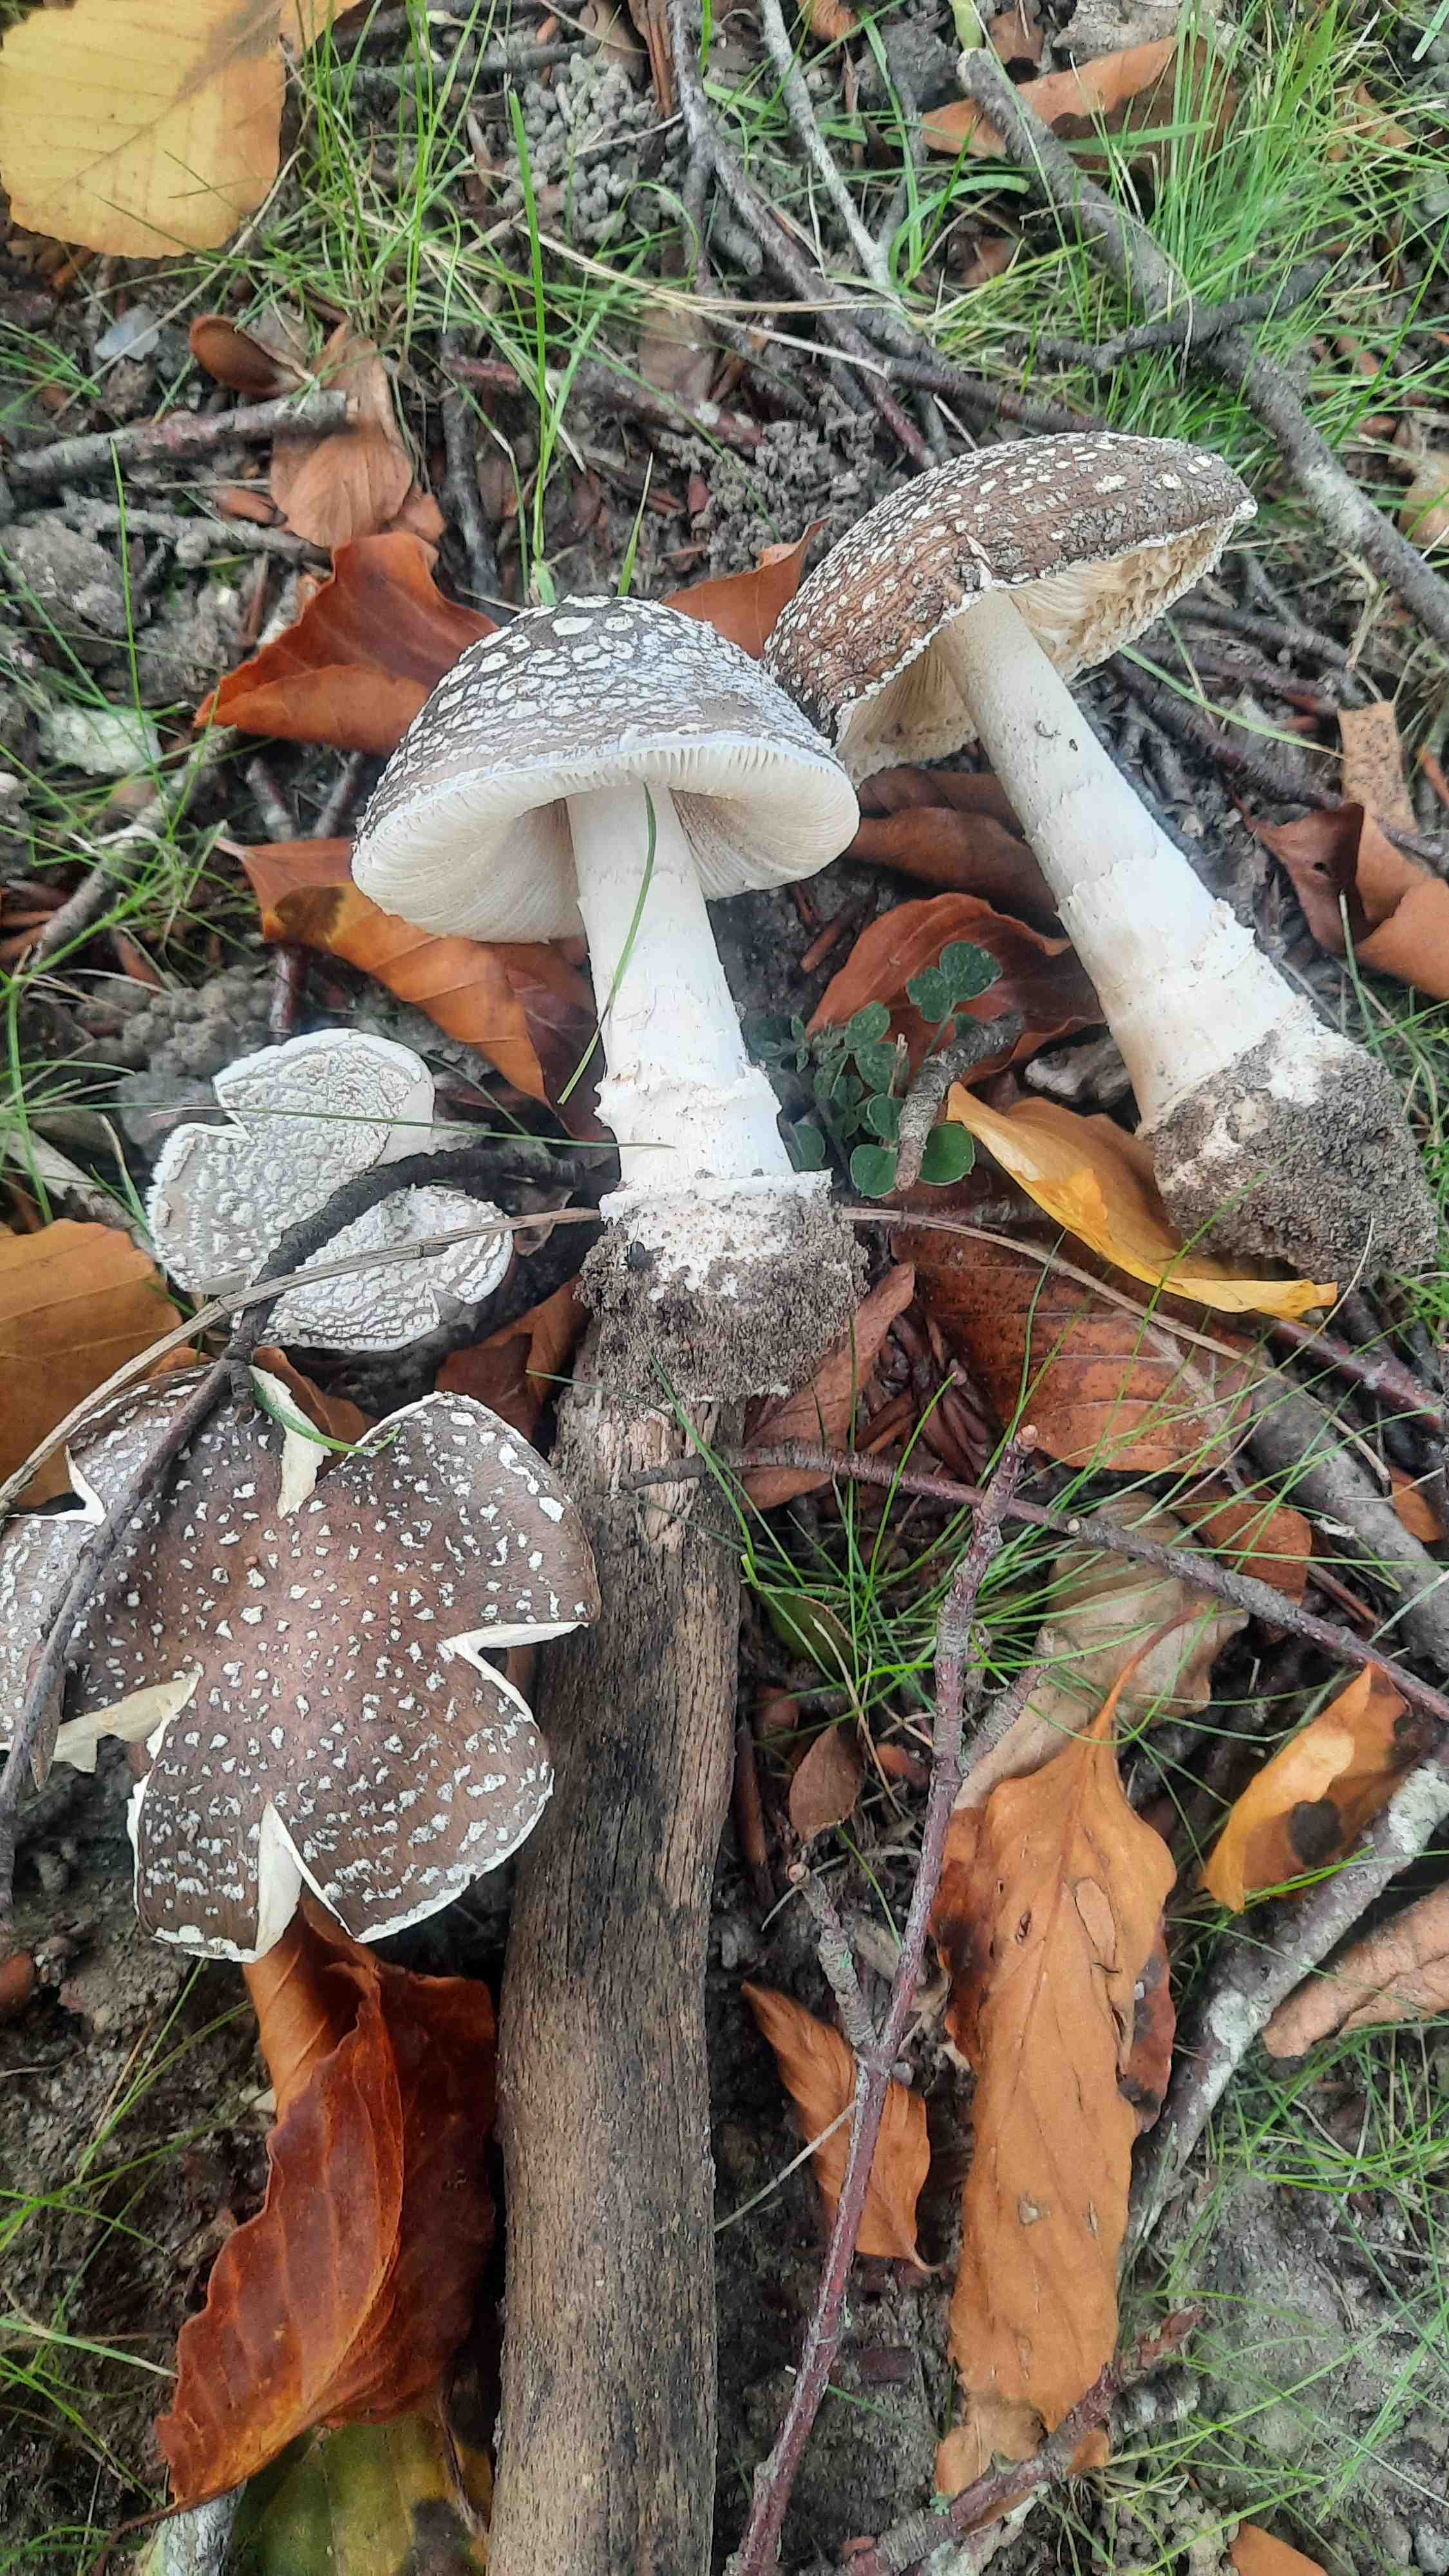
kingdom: Fungi
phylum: Basidiomycota
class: Agaricomycetes
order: Agaricales
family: Amanitaceae
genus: Amanita
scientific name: Amanita pantherina
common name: panter-fluesvamp
